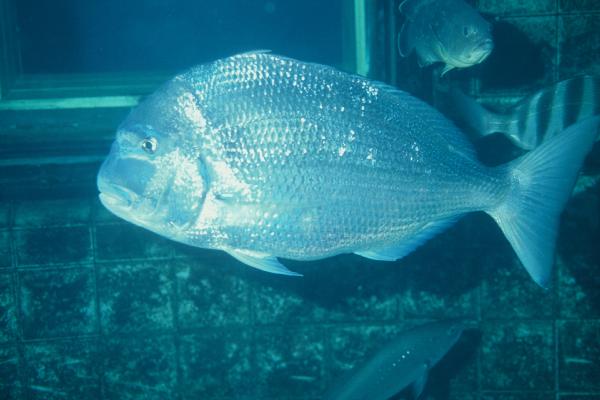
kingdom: Animalia
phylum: Chordata
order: Perciformes
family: Sparidae
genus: Argyrops
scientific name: Argyrops spinifer
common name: King soldier bream
